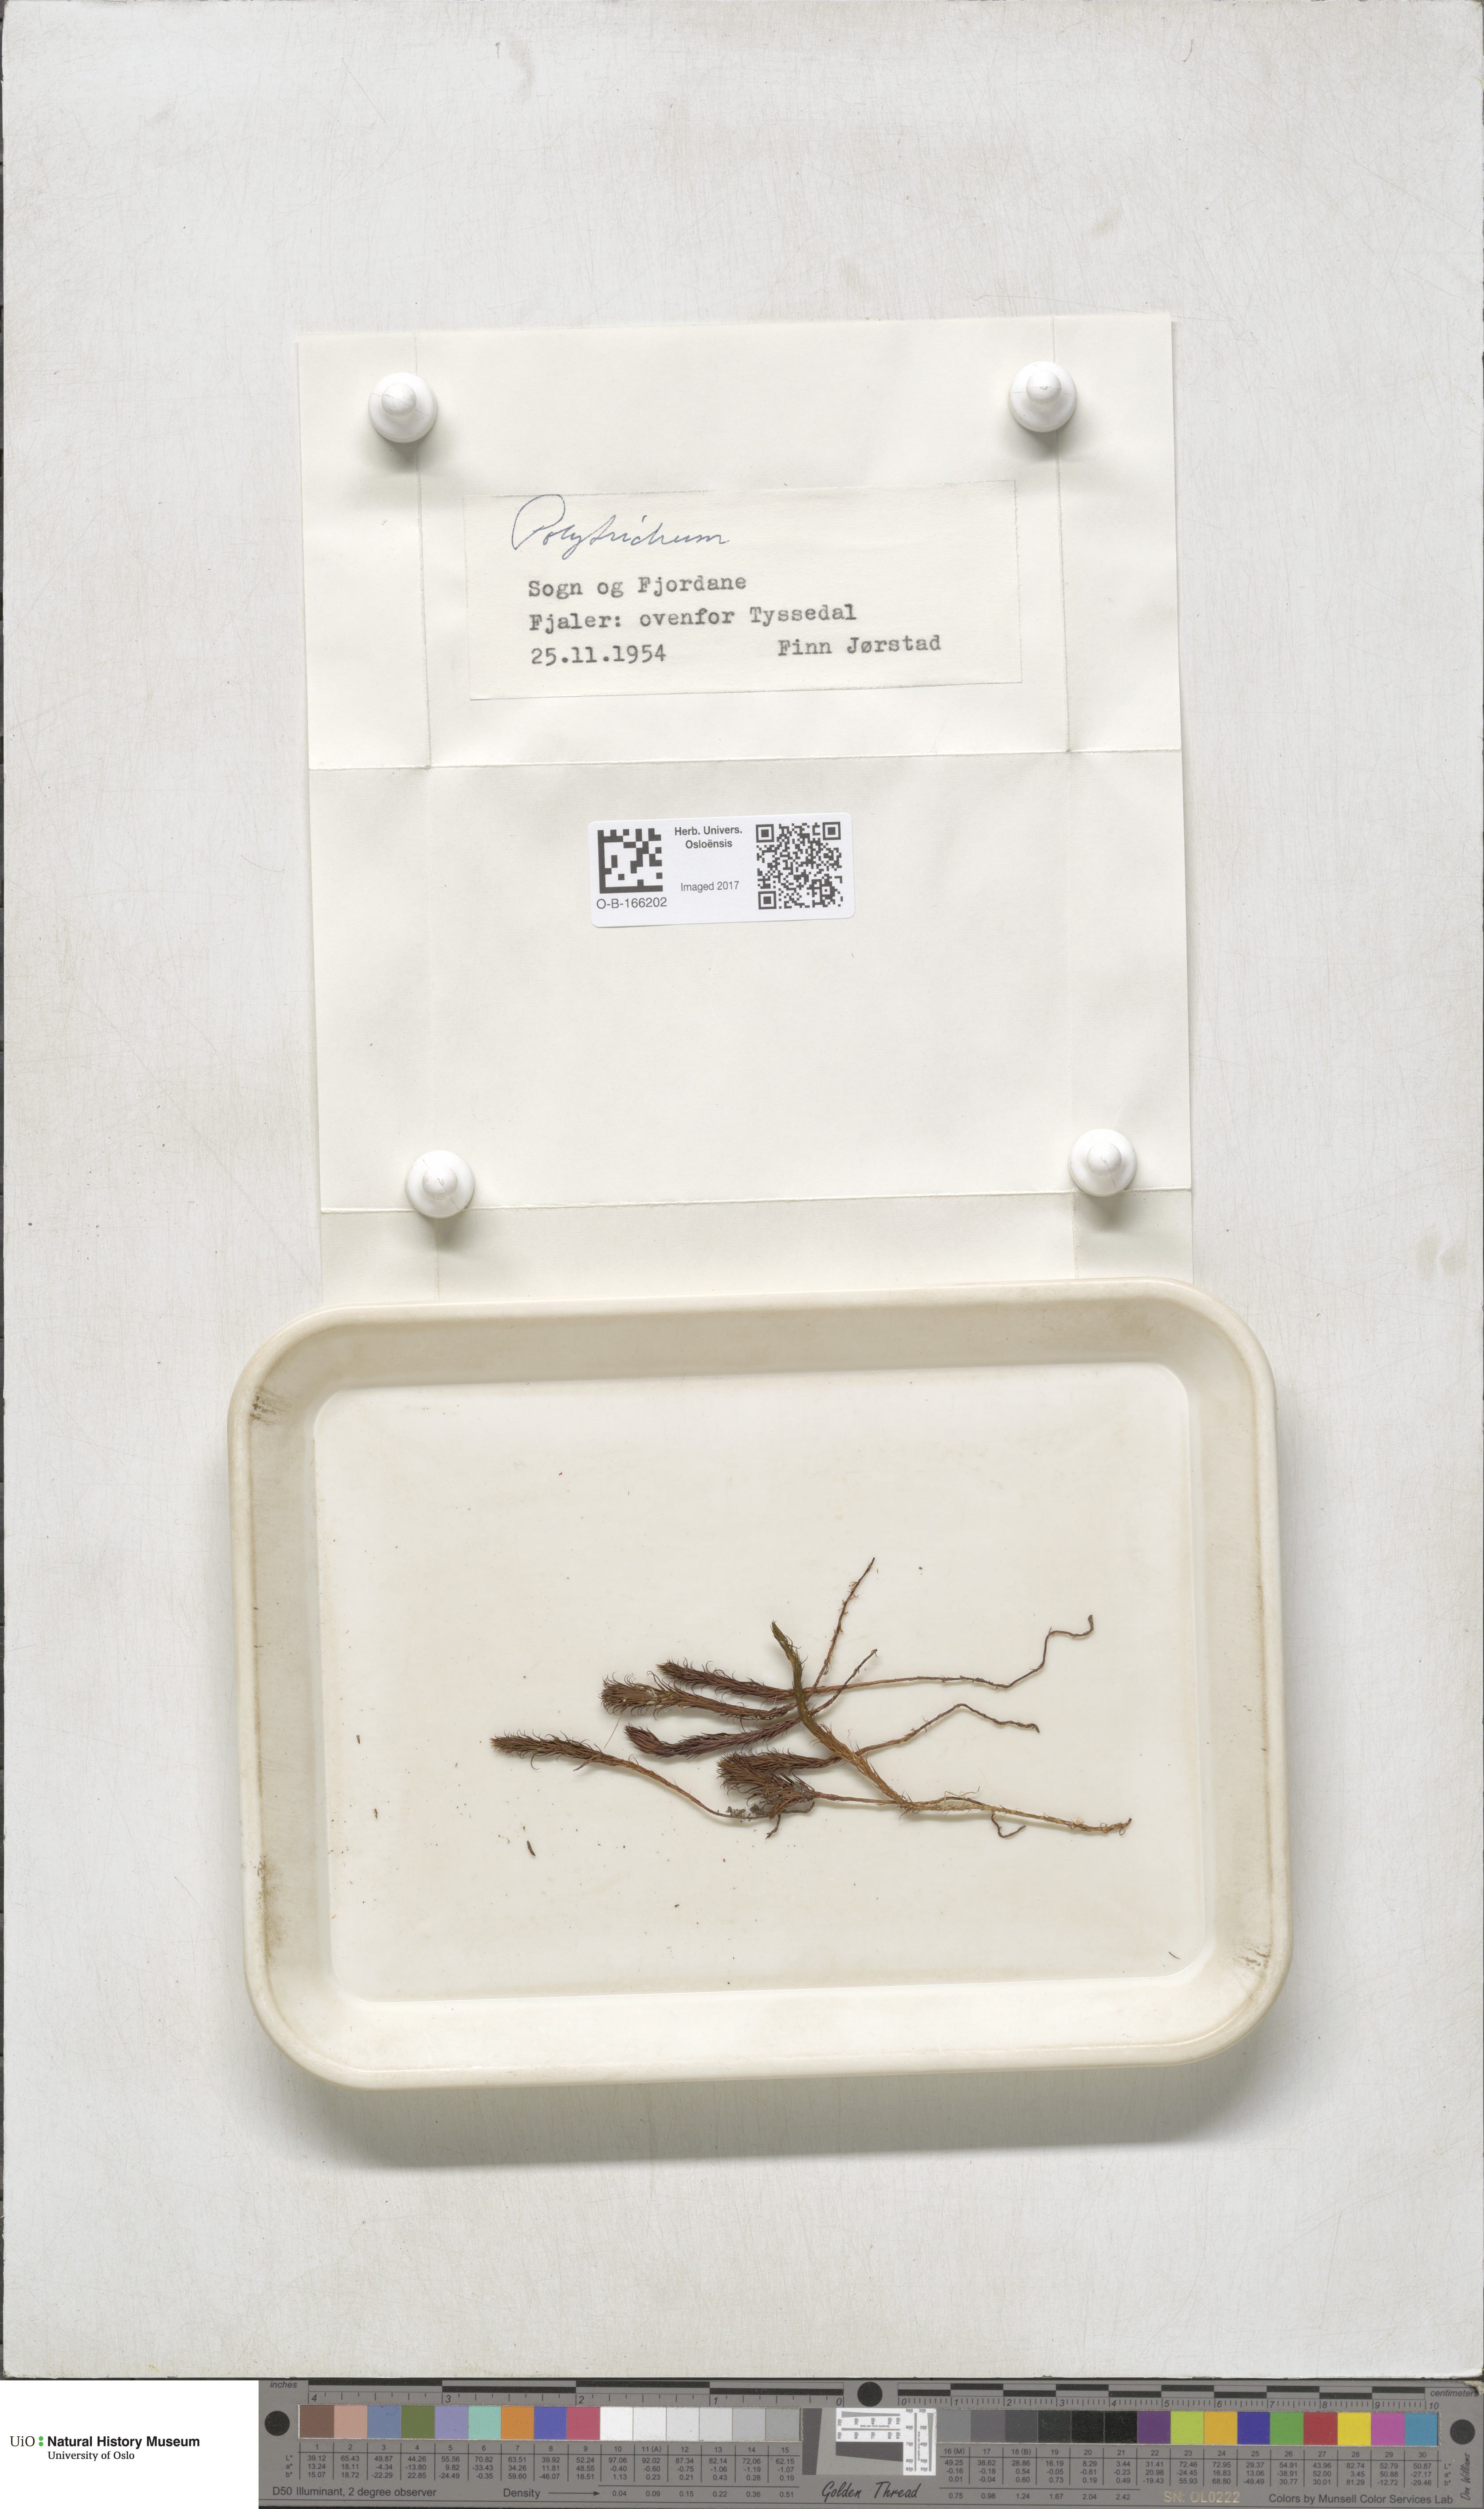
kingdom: Plantae
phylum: Bryophyta
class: Polytrichopsida
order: Polytrichales
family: Polytrichaceae
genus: Polytrichum
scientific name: Polytrichum
